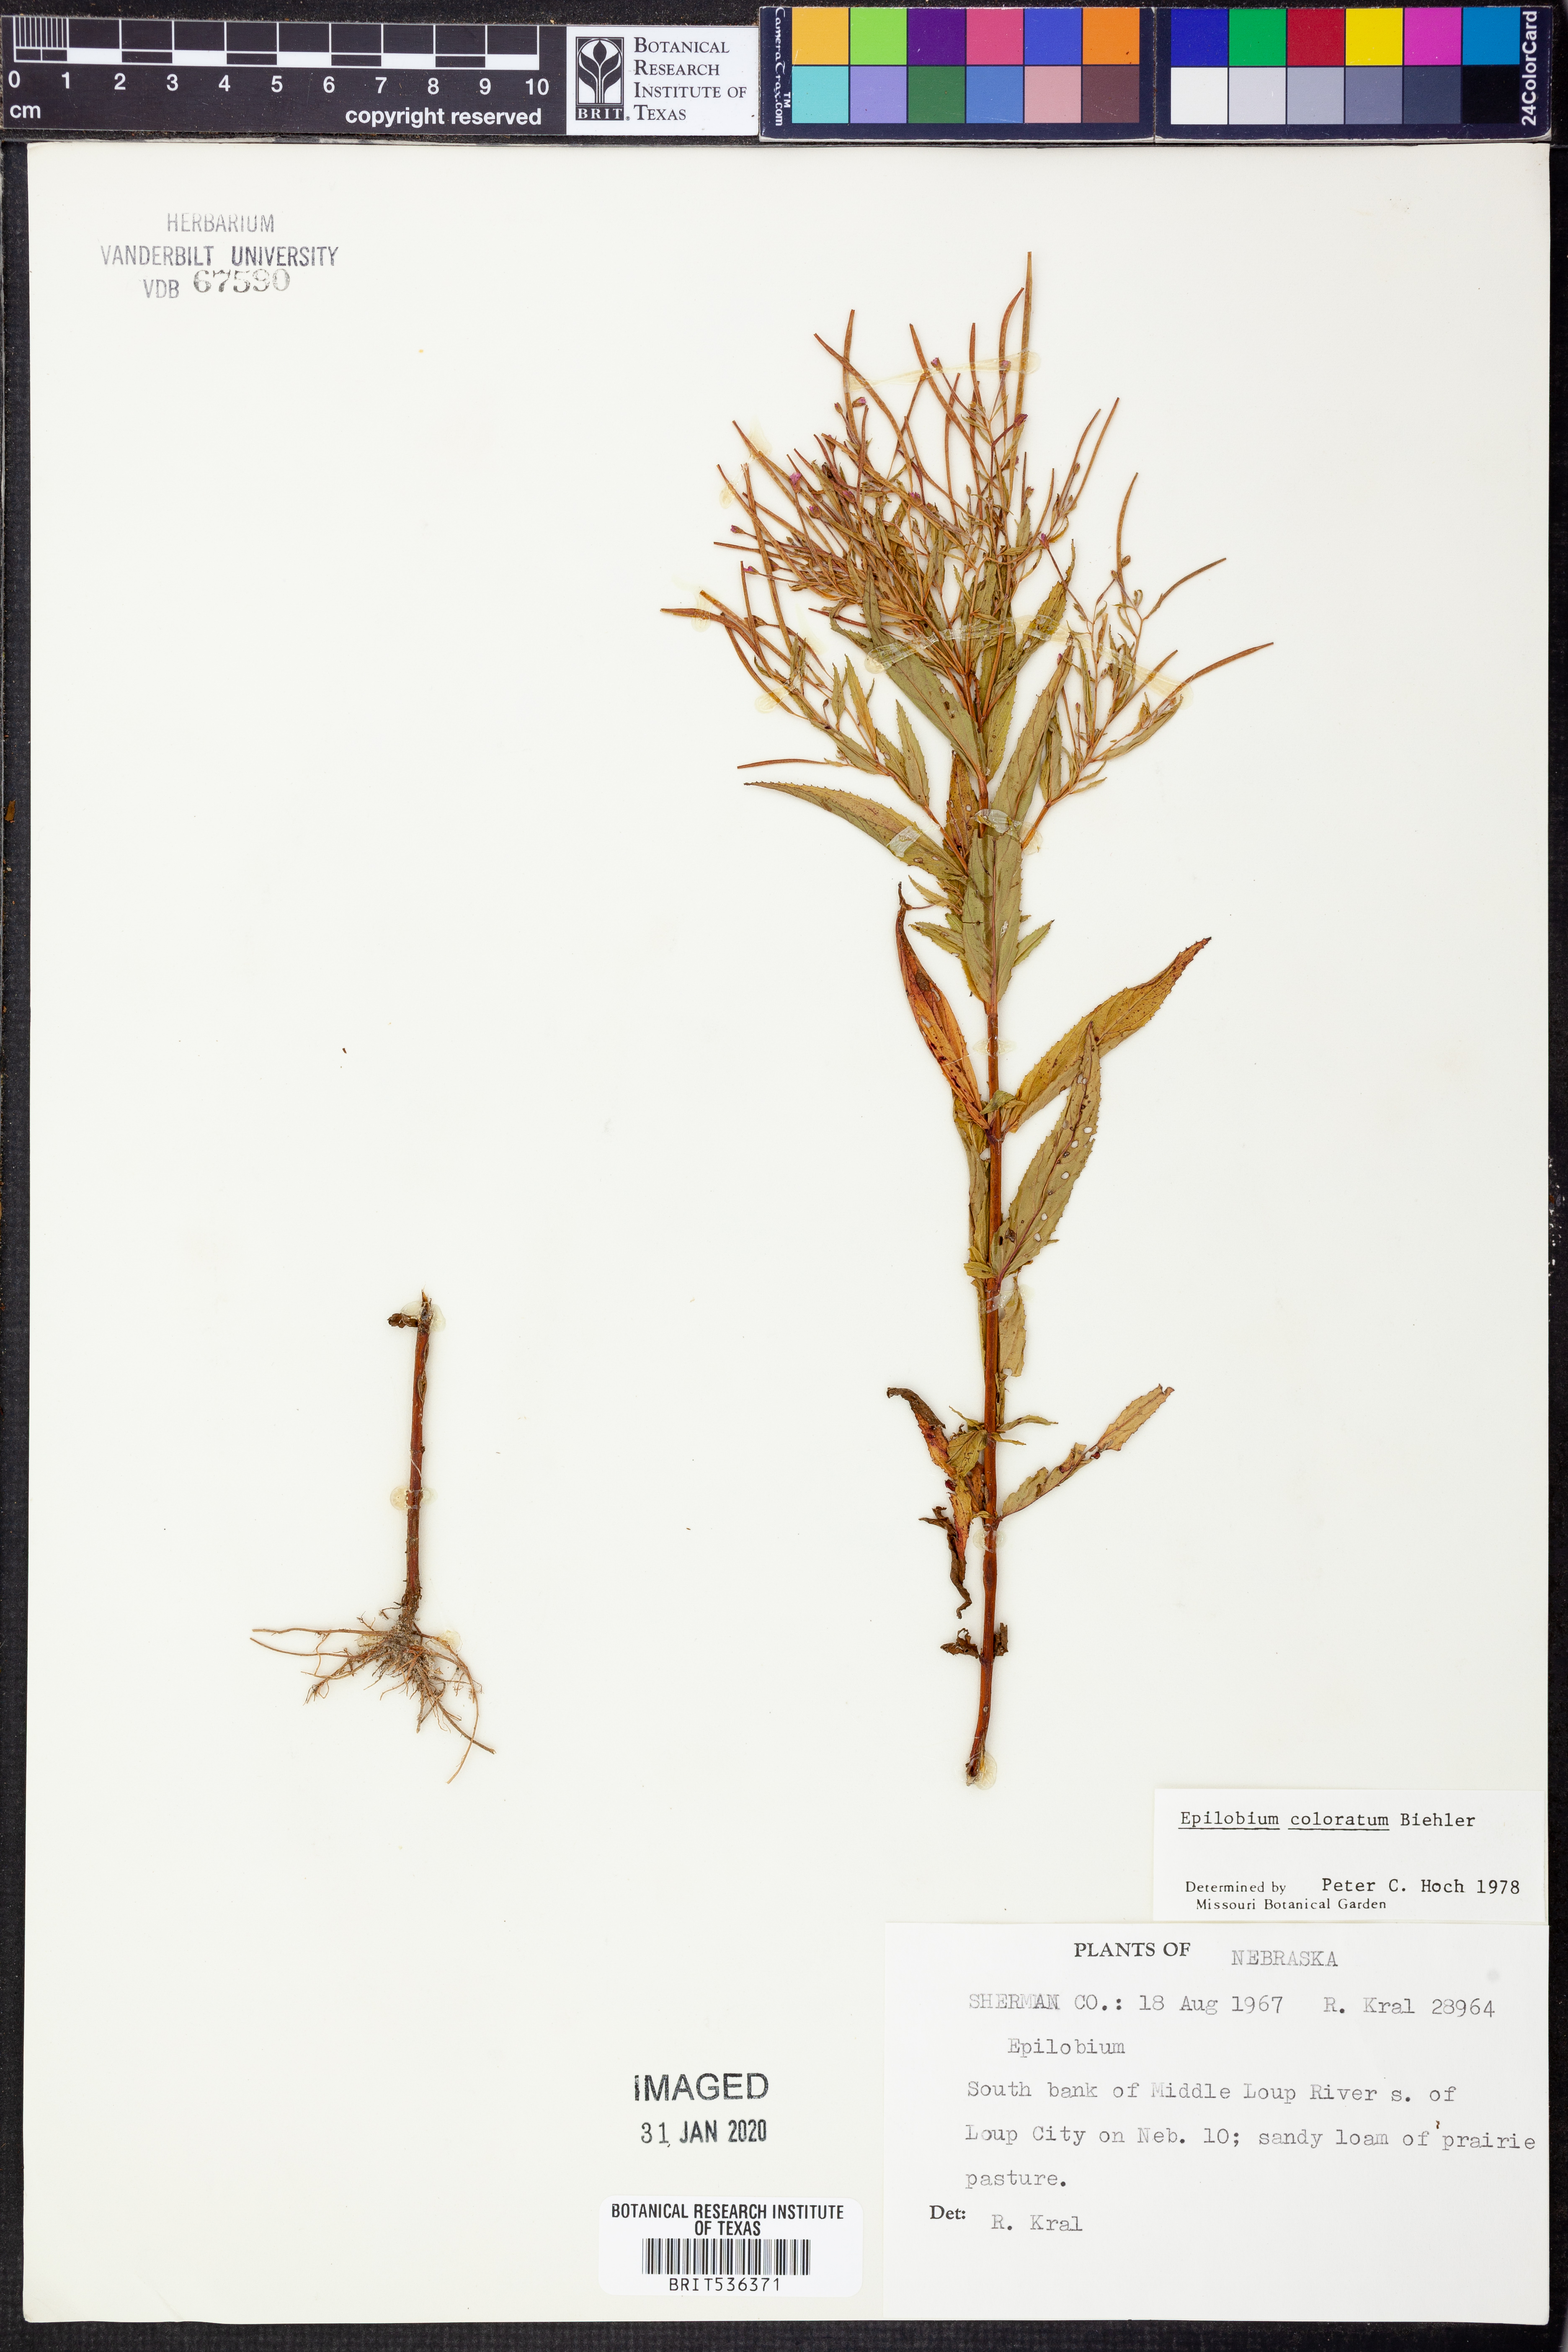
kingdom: Plantae
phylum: Tracheophyta
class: Magnoliopsida
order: Myrtales
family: Onagraceae
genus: Epilobium
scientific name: Epilobium coloratum
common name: Bronze willowherb
